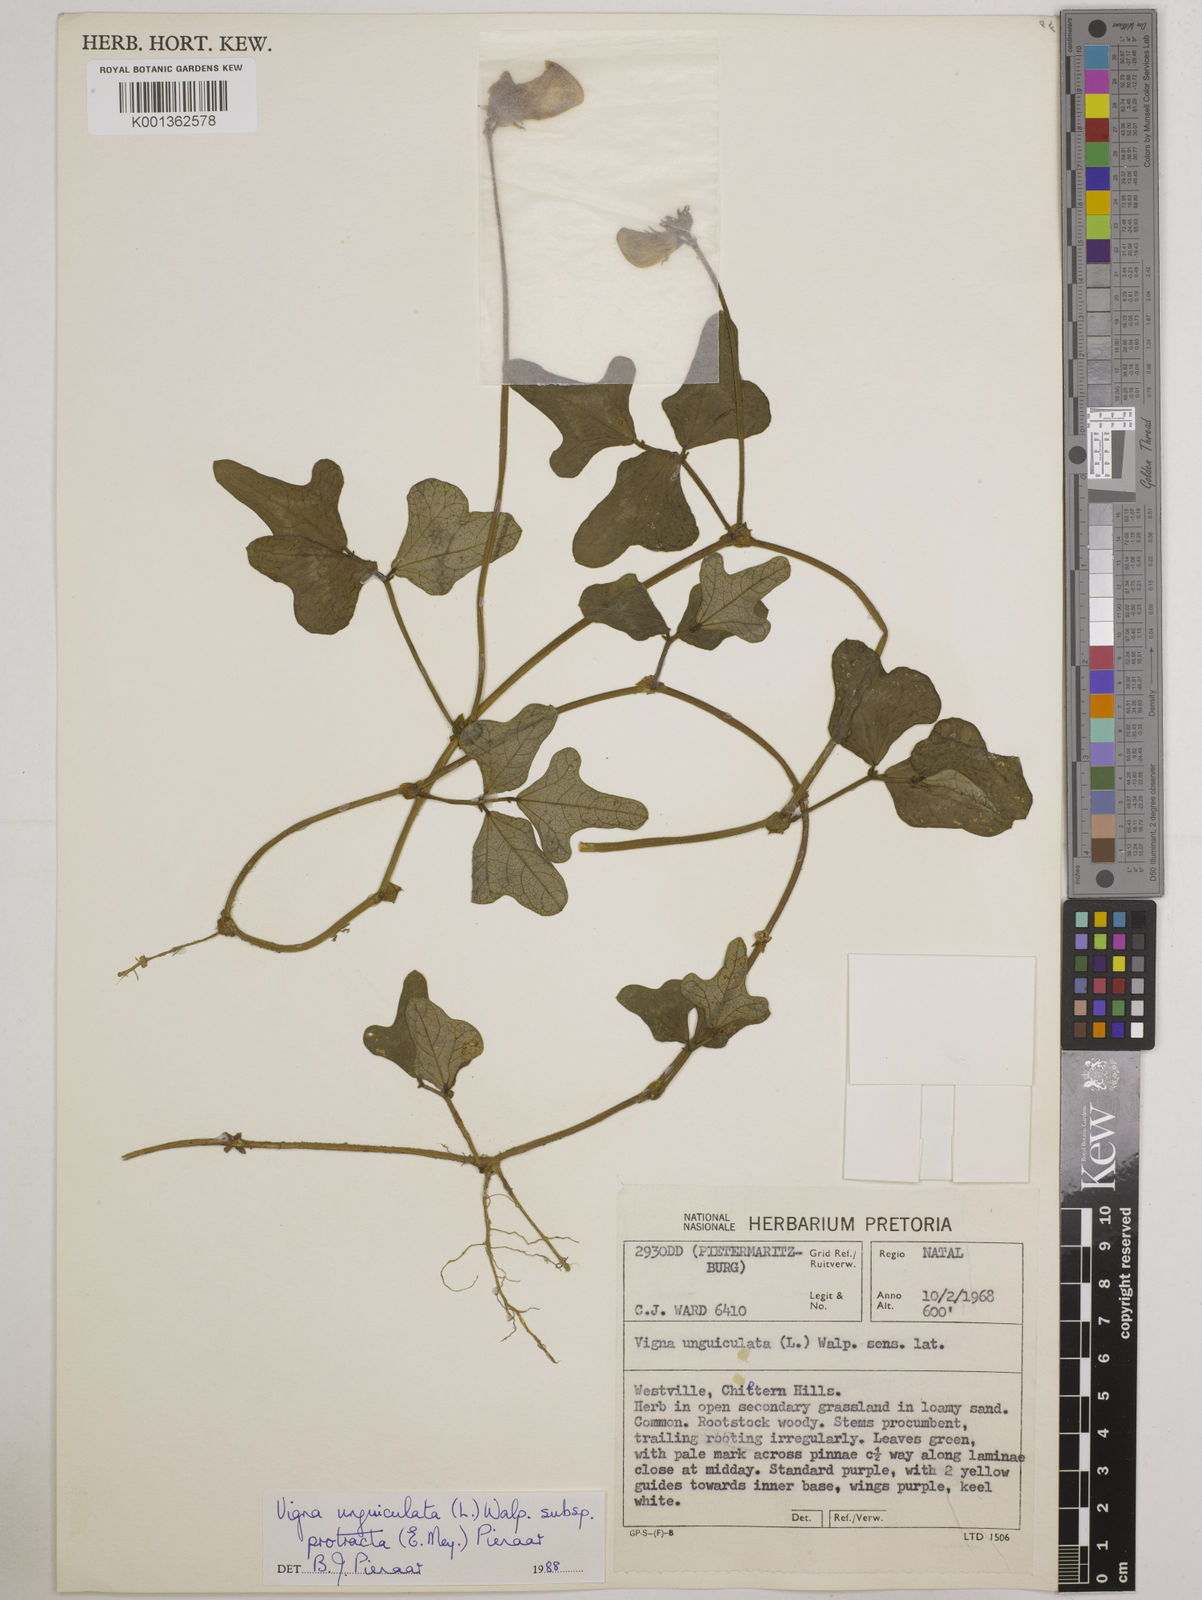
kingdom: Plantae
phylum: Tracheophyta
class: Magnoliopsida
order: Fabales
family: Fabaceae
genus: Vigna
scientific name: Vigna unguiculata
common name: Cowpea
